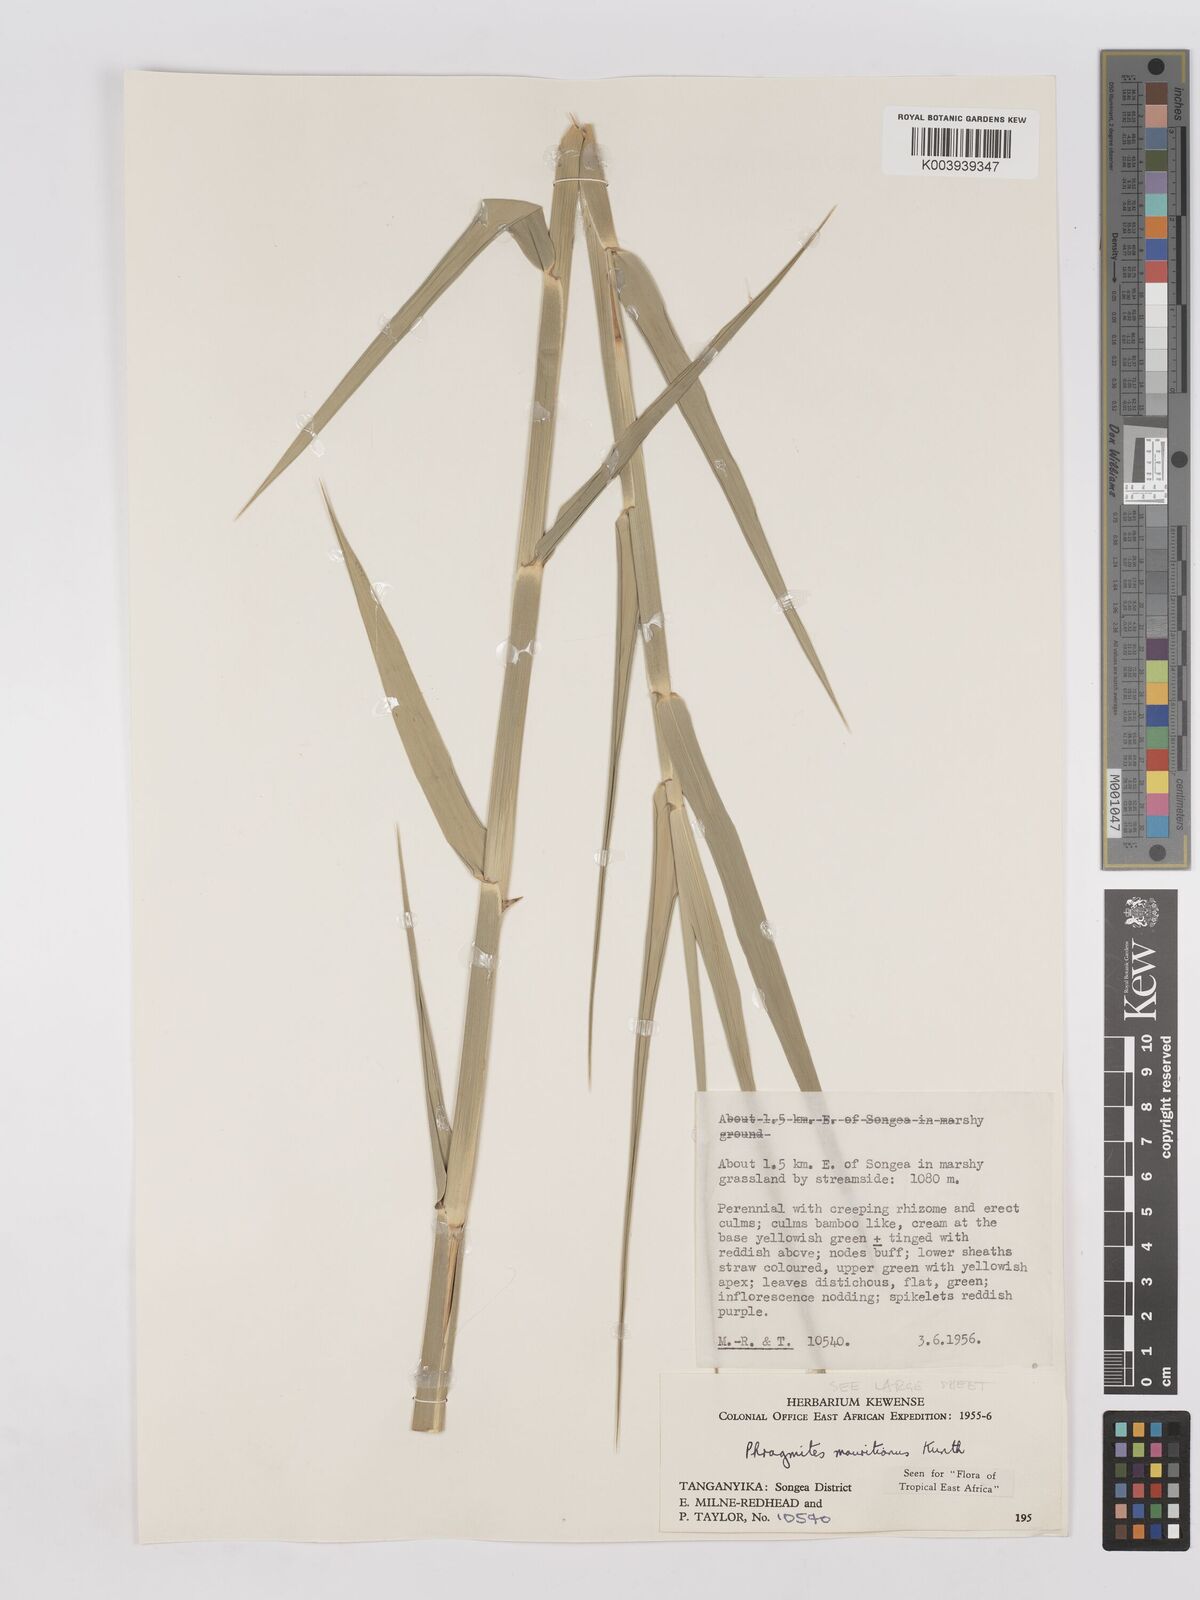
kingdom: Plantae
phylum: Tracheophyta
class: Liliopsida
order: Poales
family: Poaceae
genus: Phragmites
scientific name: Phragmites mauritianus
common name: Reed grass
